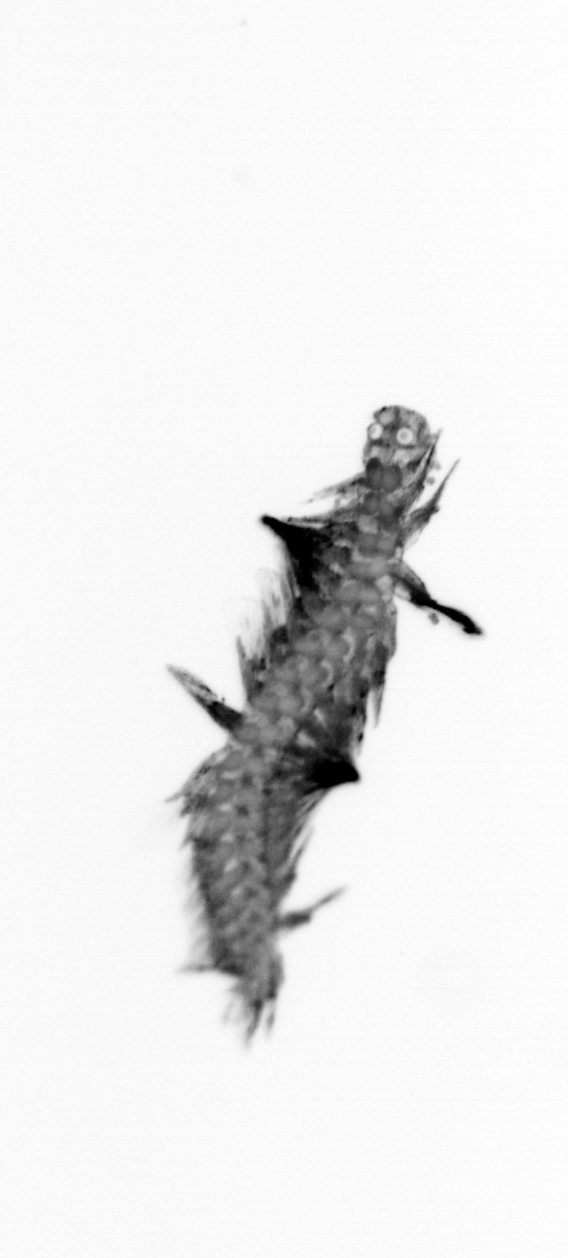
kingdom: Animalia
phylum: Annelida
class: Polychaeta
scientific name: Polychaeta
